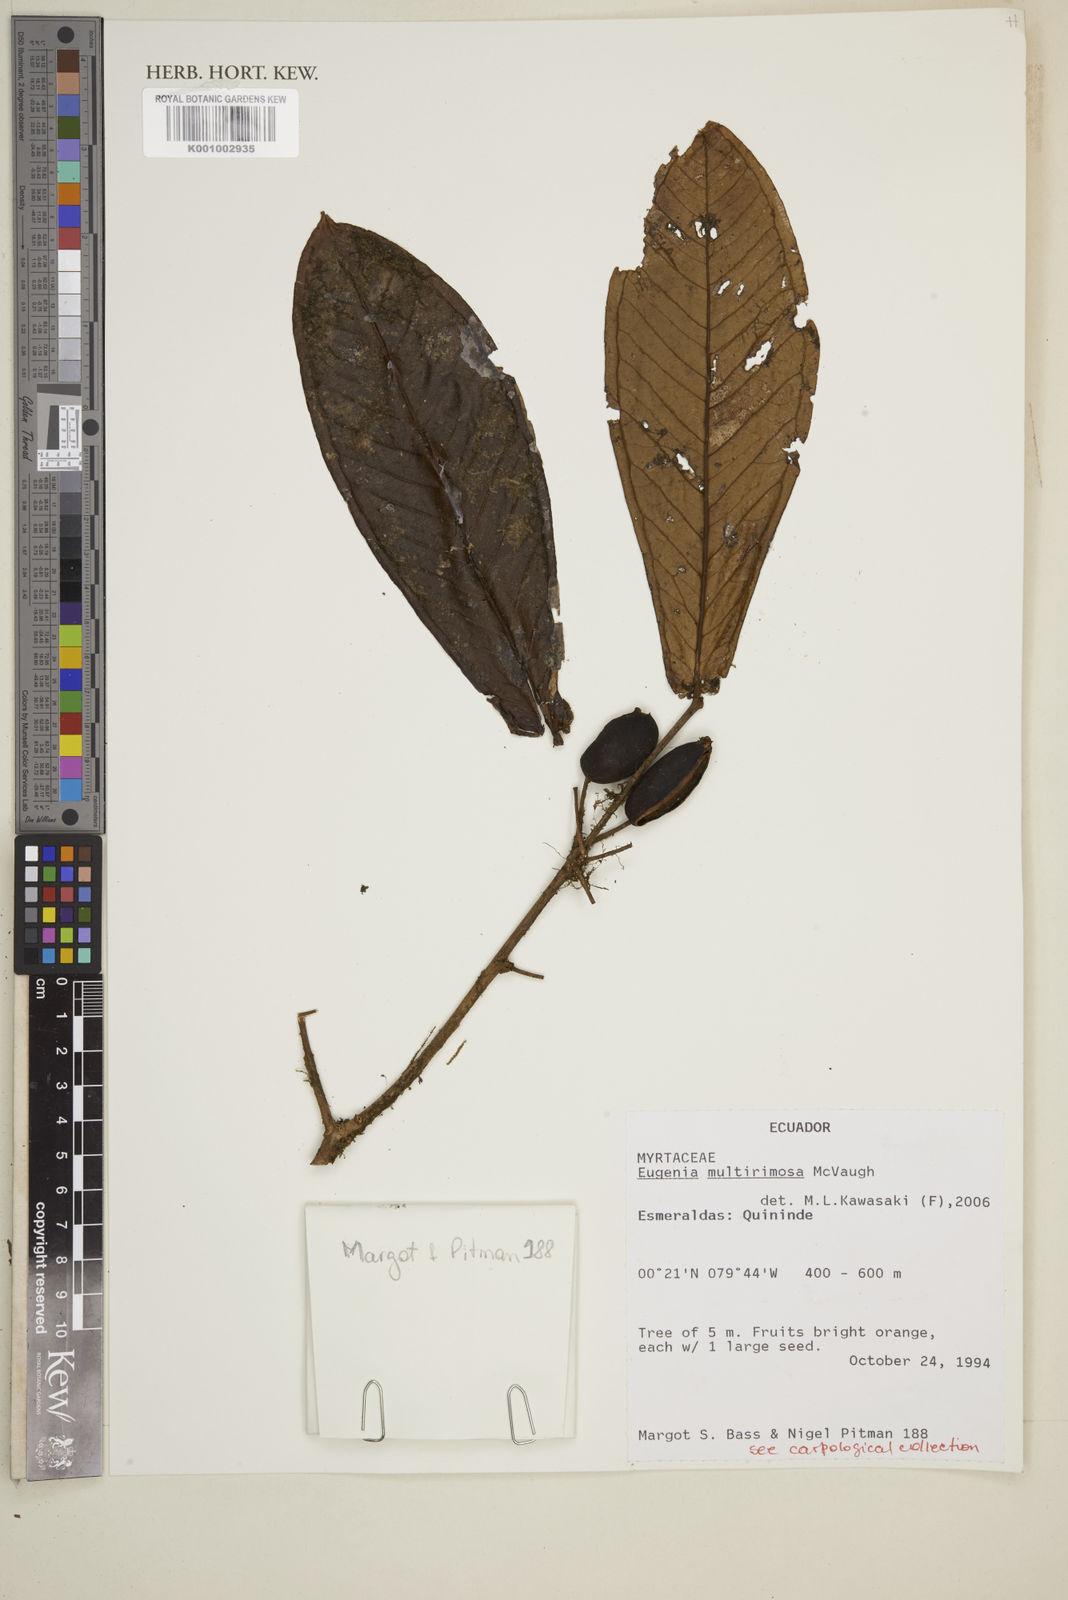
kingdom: Plantae
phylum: Tracheophyta
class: Magnoliopsida
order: Myrtales
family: Myrtaceae
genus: Eugenia
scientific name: Eugenia multirimosa
